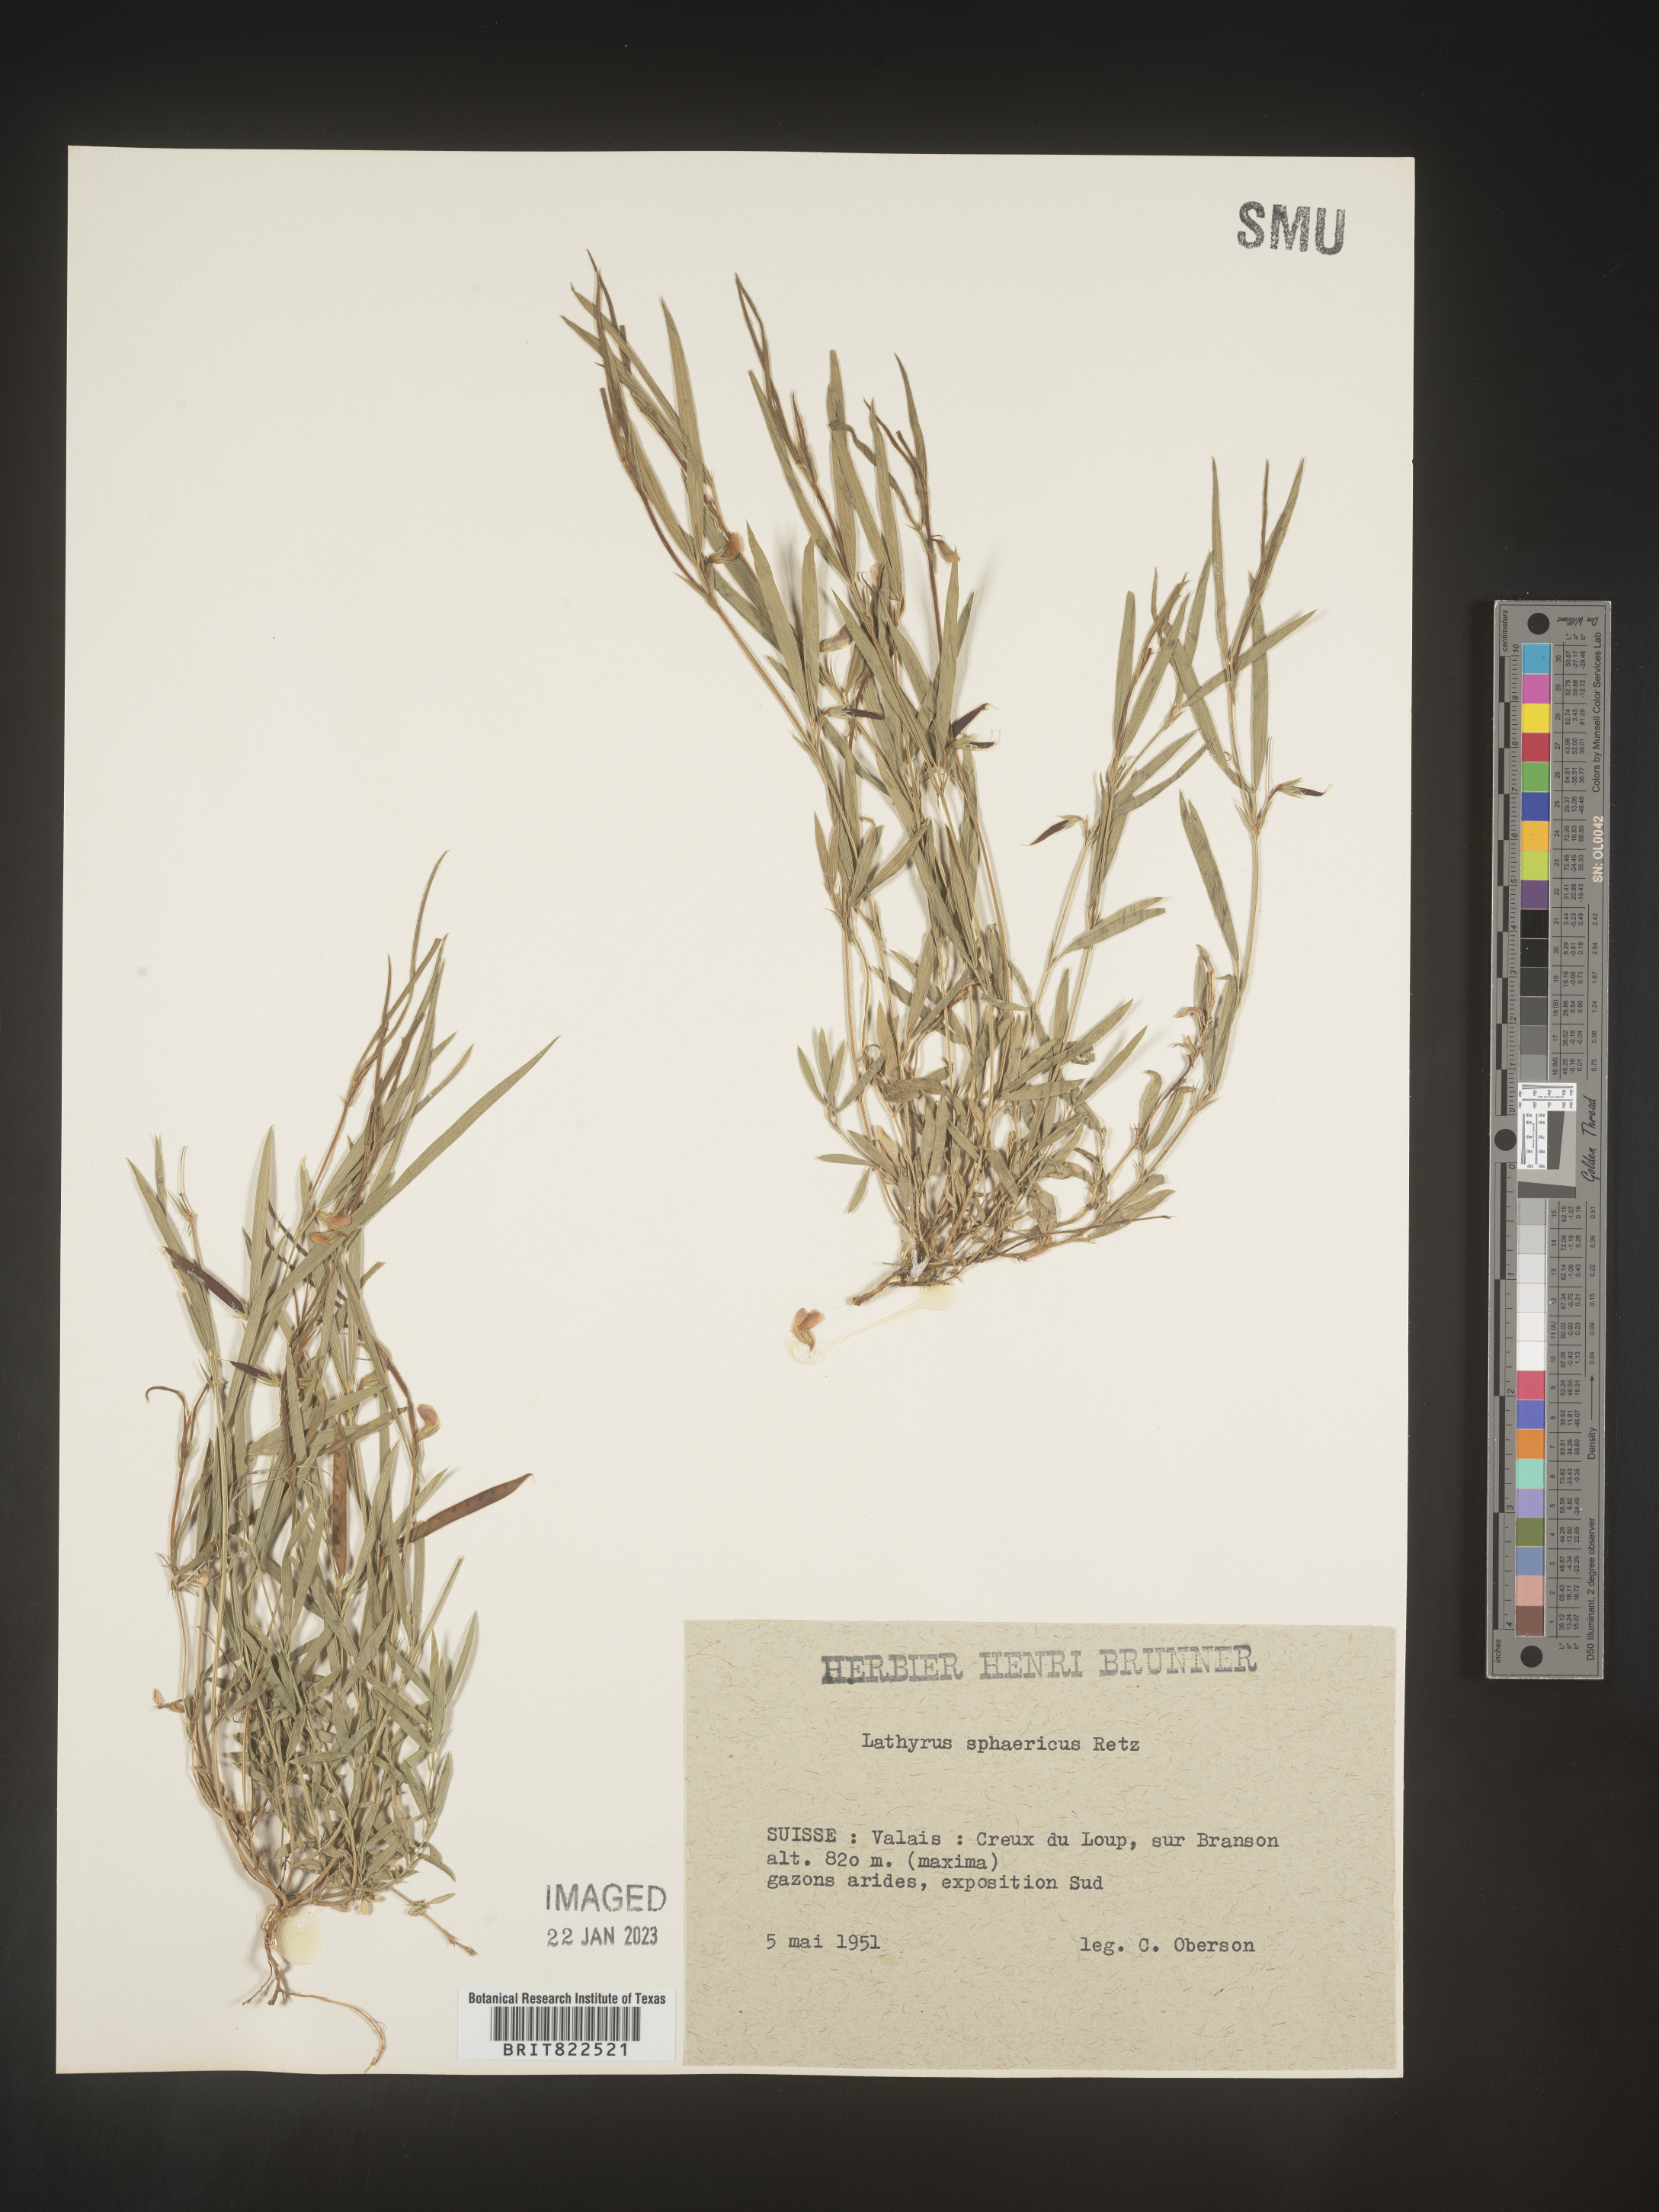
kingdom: Plantae
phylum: Tracheophyta
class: Magnoliopsida
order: Fabales
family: Fabaceae
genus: Lathyrus
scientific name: Lathyrus
